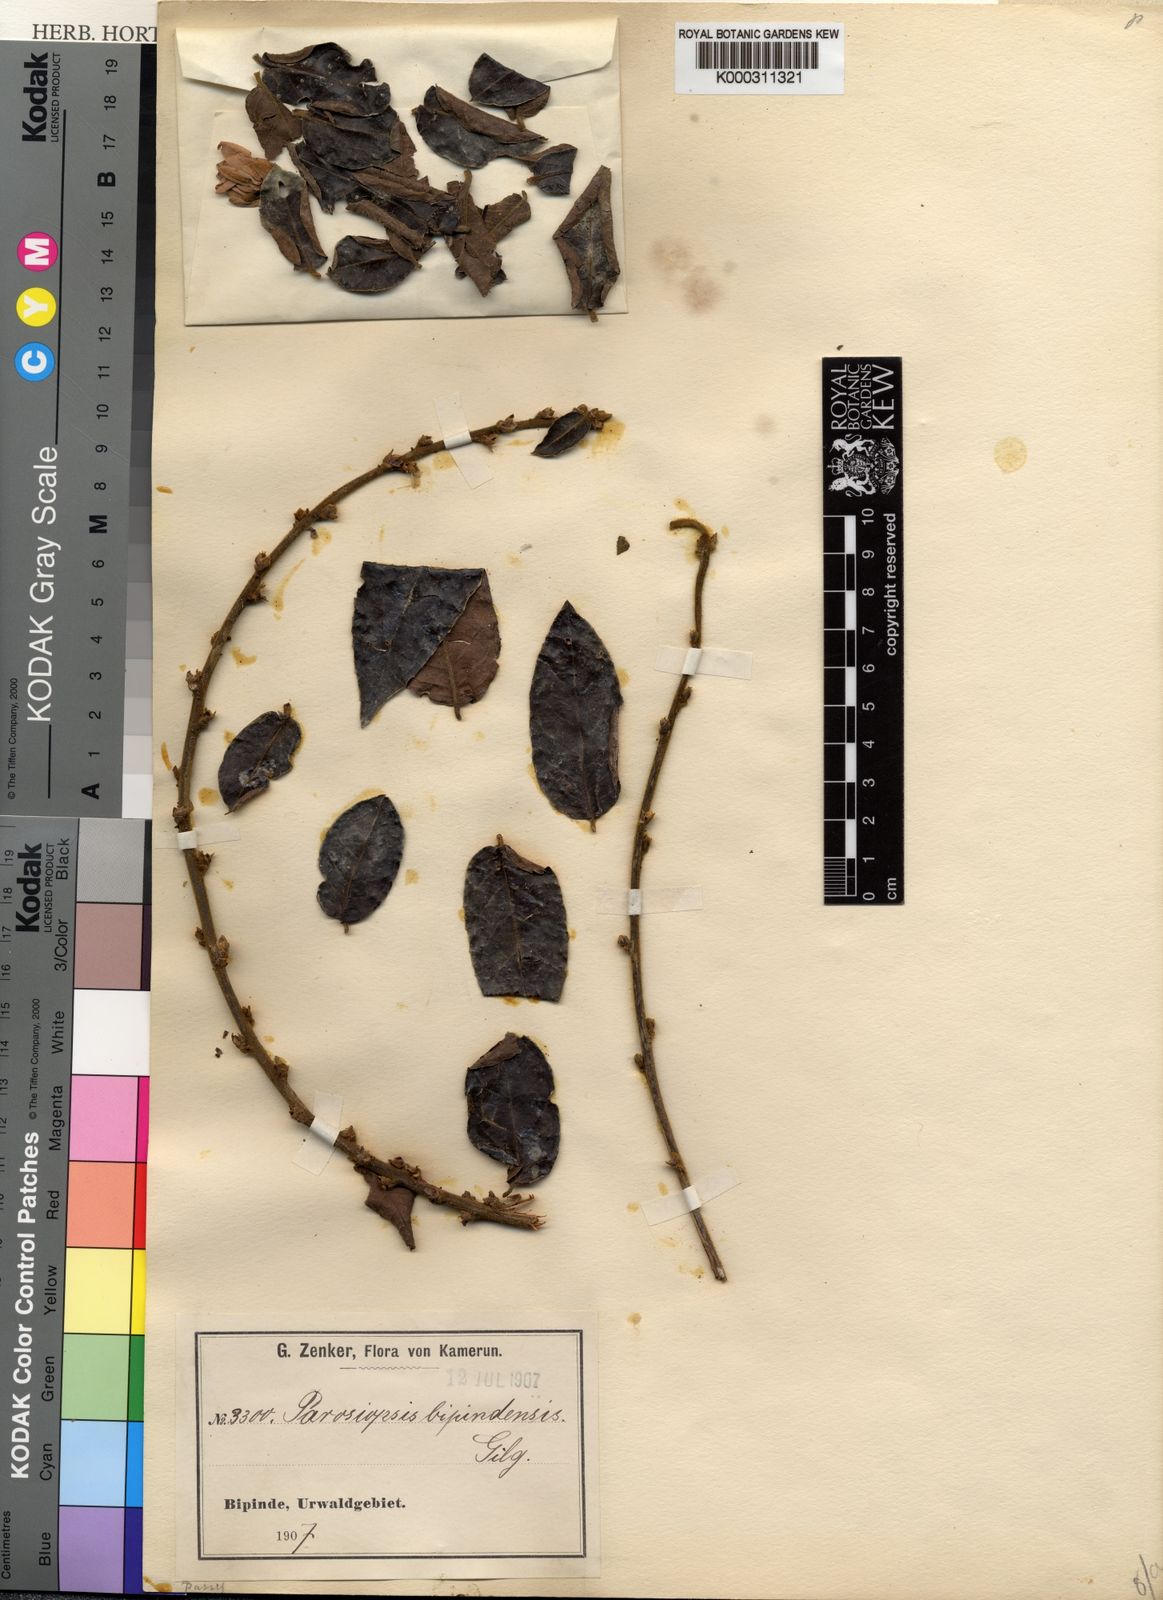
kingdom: Plantae
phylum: Tracheophyta
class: Magnoliopsida
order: Malpighiales
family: Passifloraceae
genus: Paropsiopsis
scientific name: Paropsiopsis decandra
